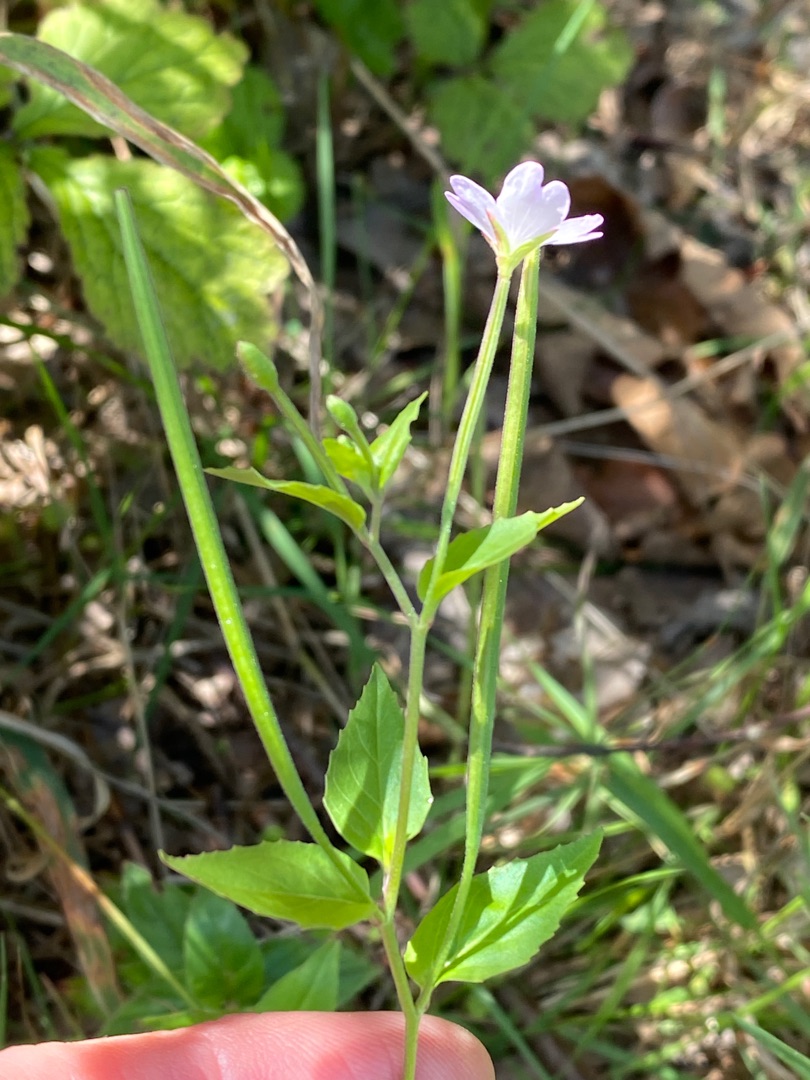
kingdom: Plantae
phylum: Tracheophyta
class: Magnoliopsida
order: Myrtales
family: Onagraceae
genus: Epilobium
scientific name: Epilobium montanum
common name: Glat dueurt
